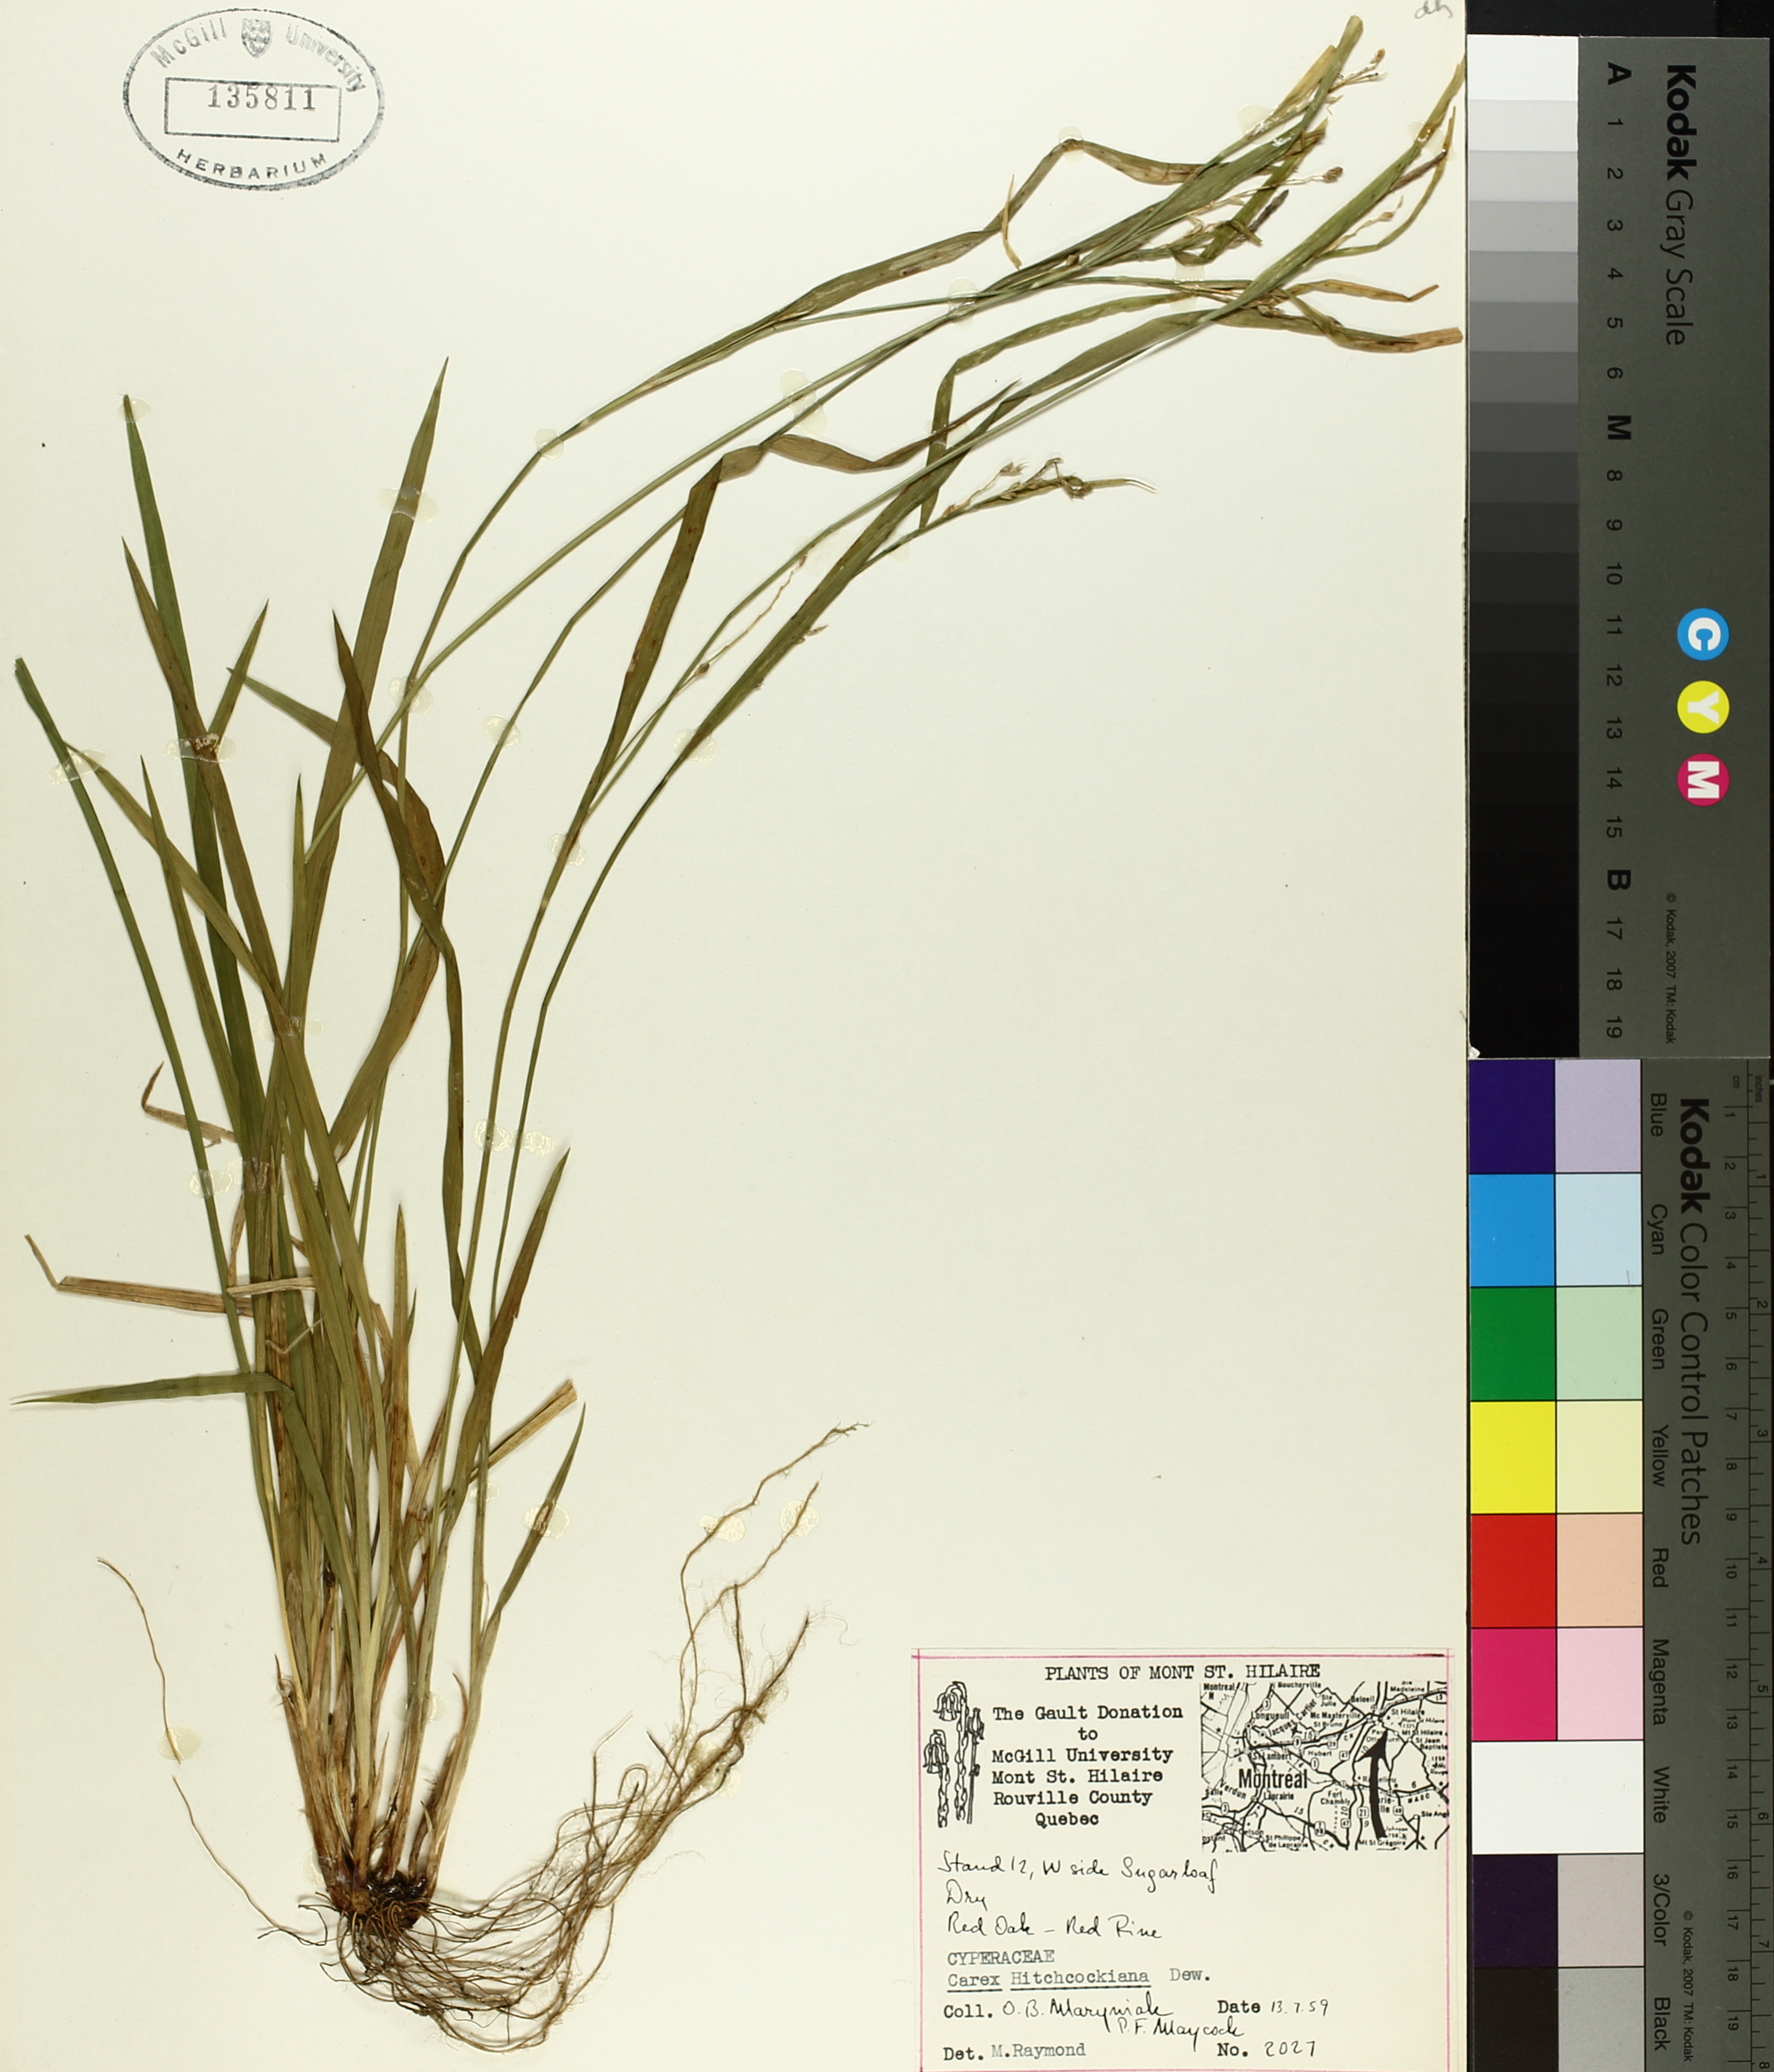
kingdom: Plantae
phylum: Tracheophyta
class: Liliopsida
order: Poales
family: Cyperaceae
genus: Carex
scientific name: Carex hitchcockiana
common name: Hairy grey sedge
